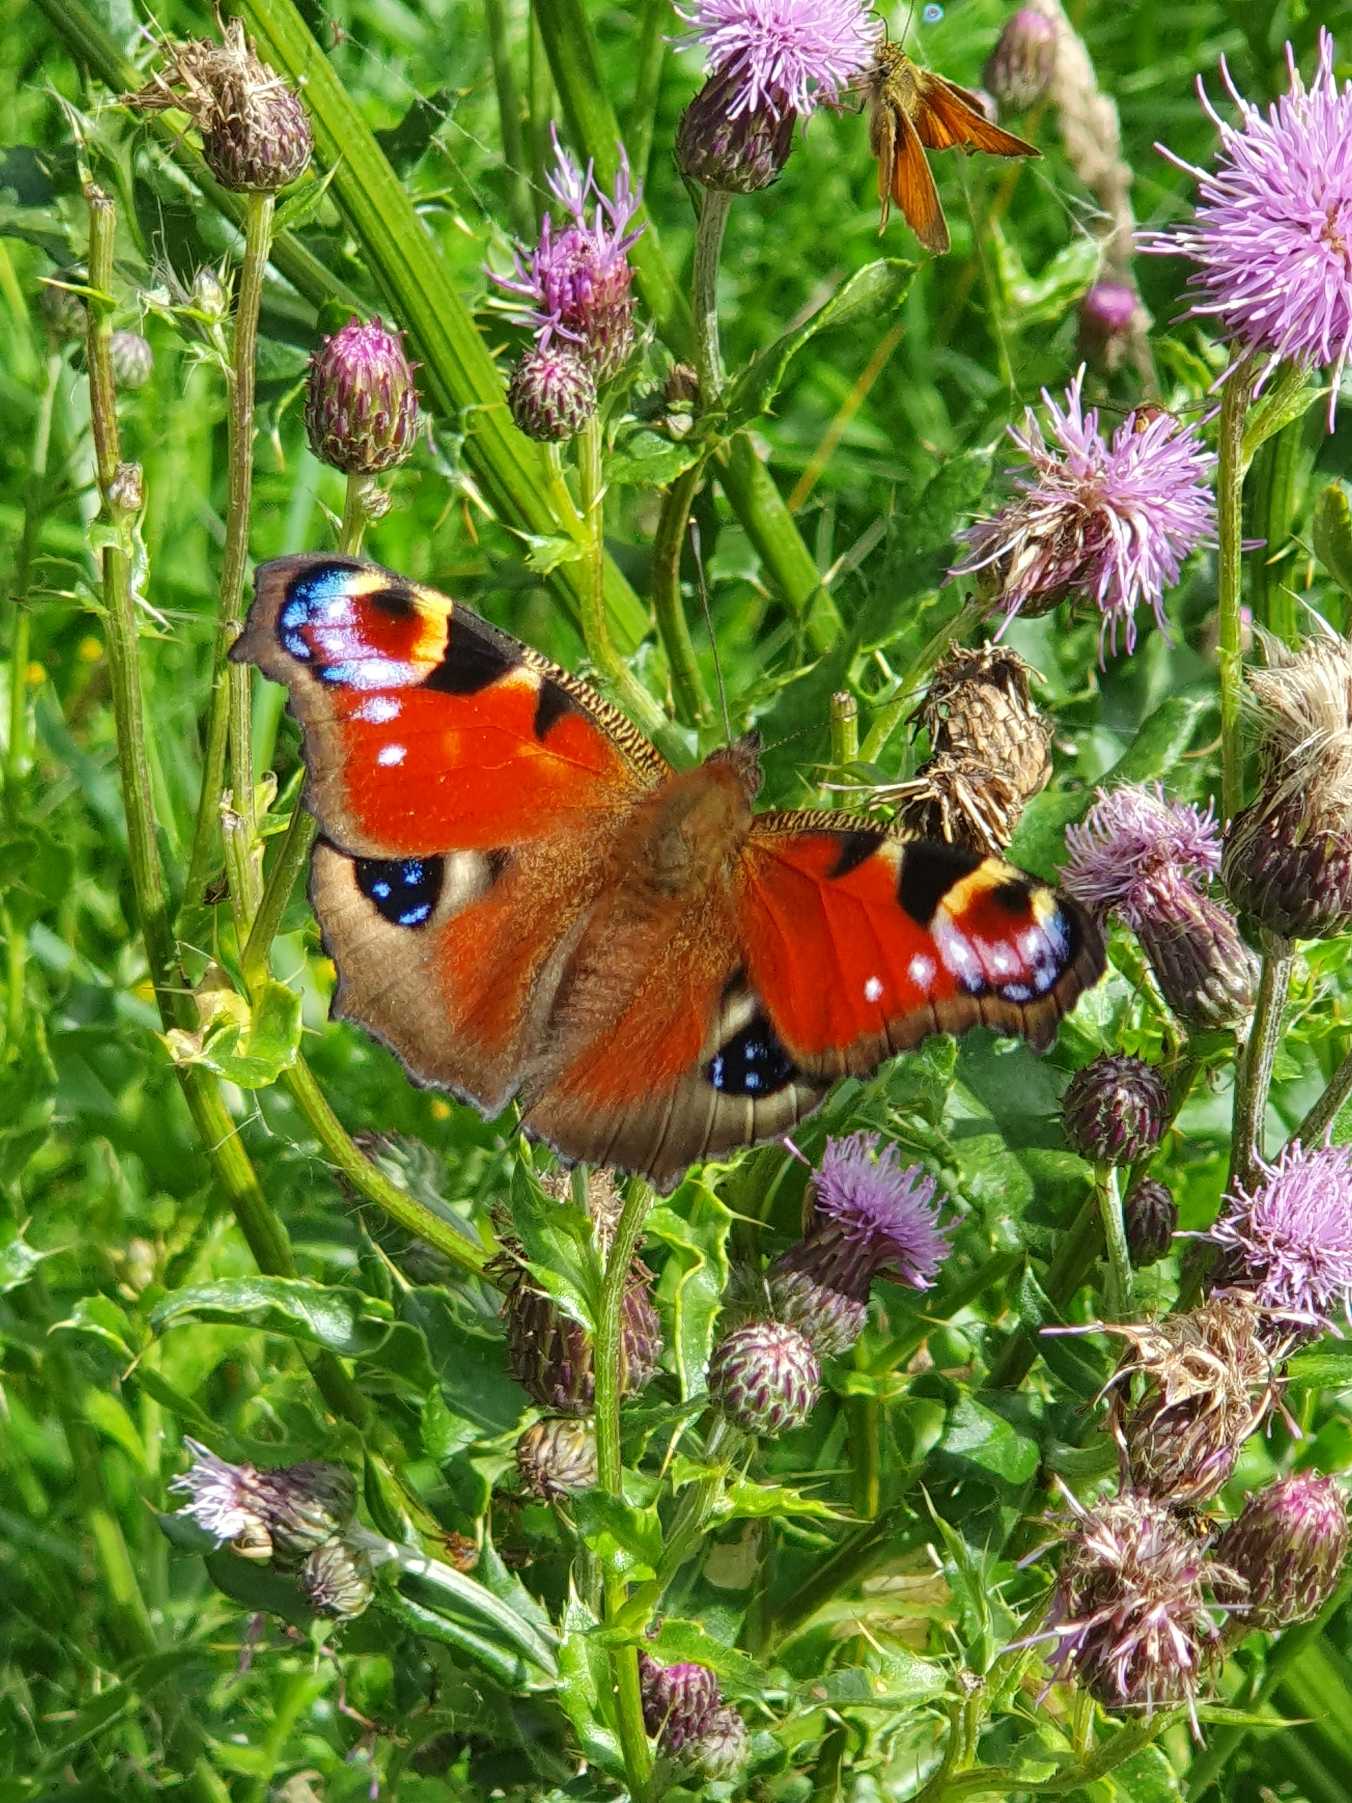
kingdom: Animalia
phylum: Arthropoda
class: Insecta
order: Lepidoptera
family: Nymphalidae
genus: Aglais
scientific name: Aglais io
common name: Dagpåfugleøje
